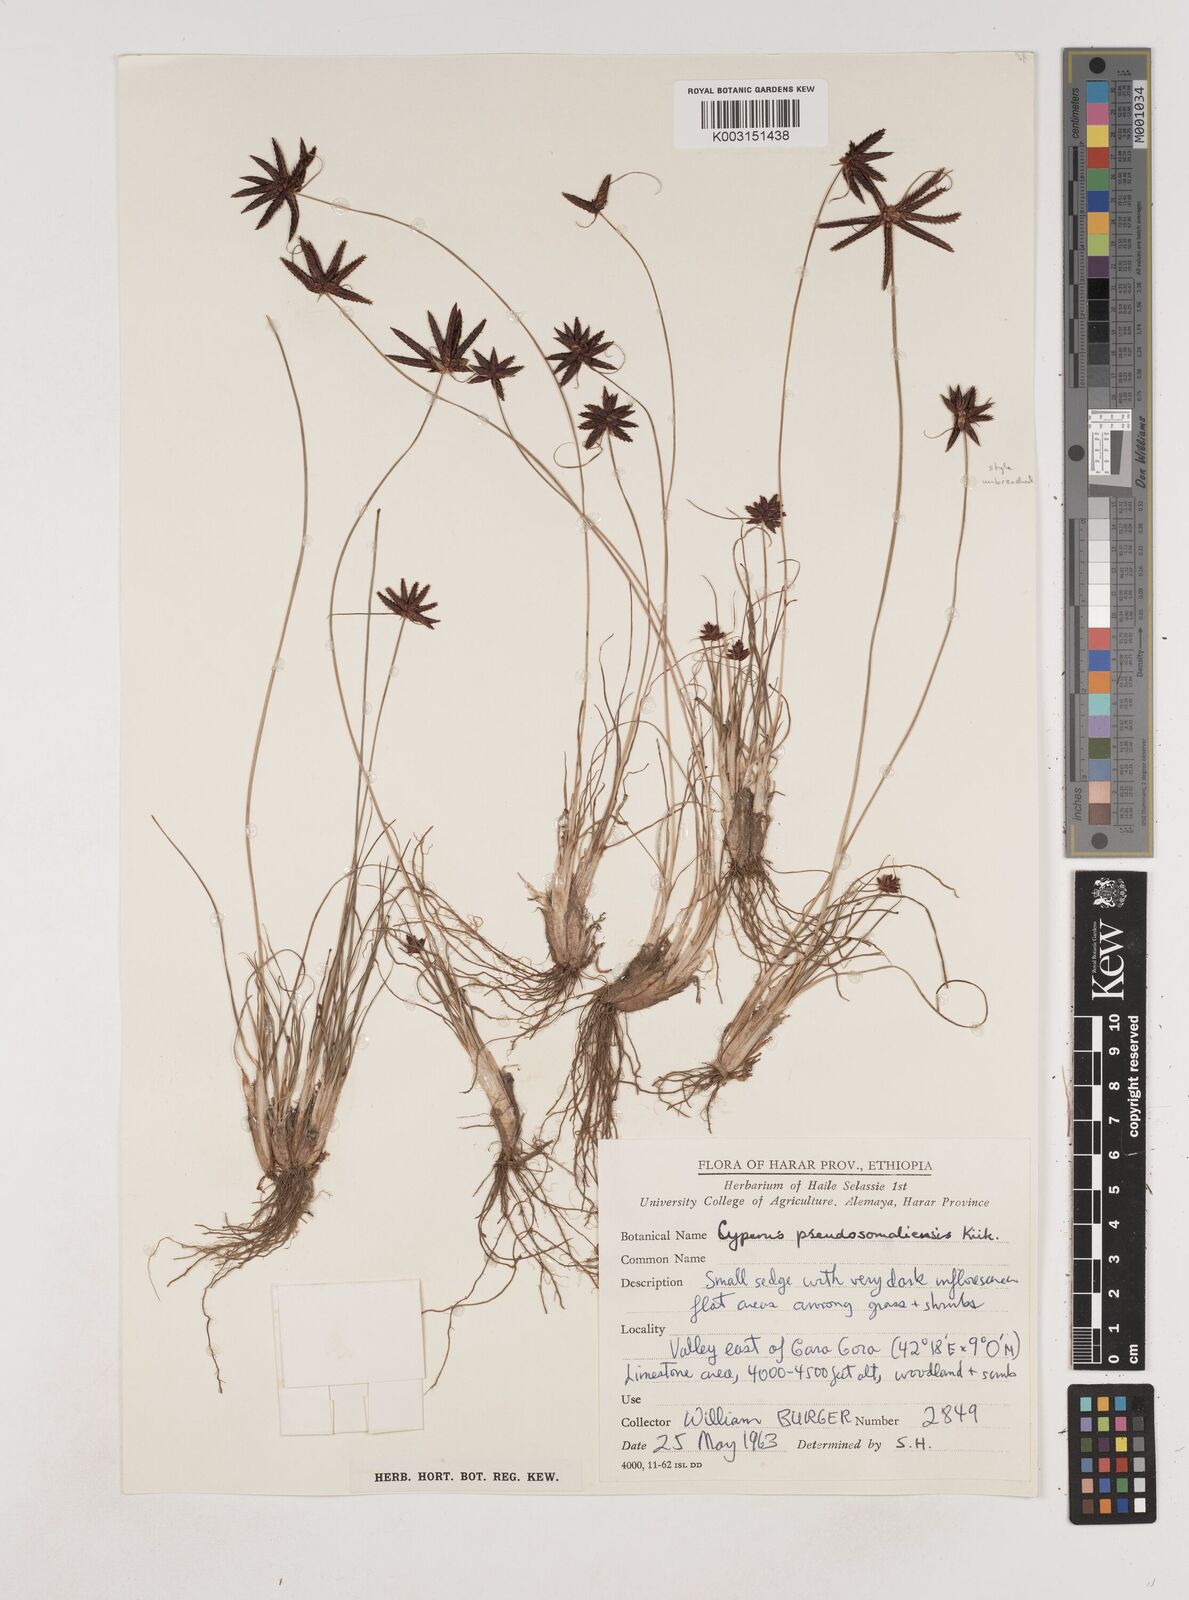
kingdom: Plantae
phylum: Tracheophyta
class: Liliopsida
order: Poales
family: Cyperaceae
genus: Cyperus
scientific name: Cyperus pseudosomaliensis
